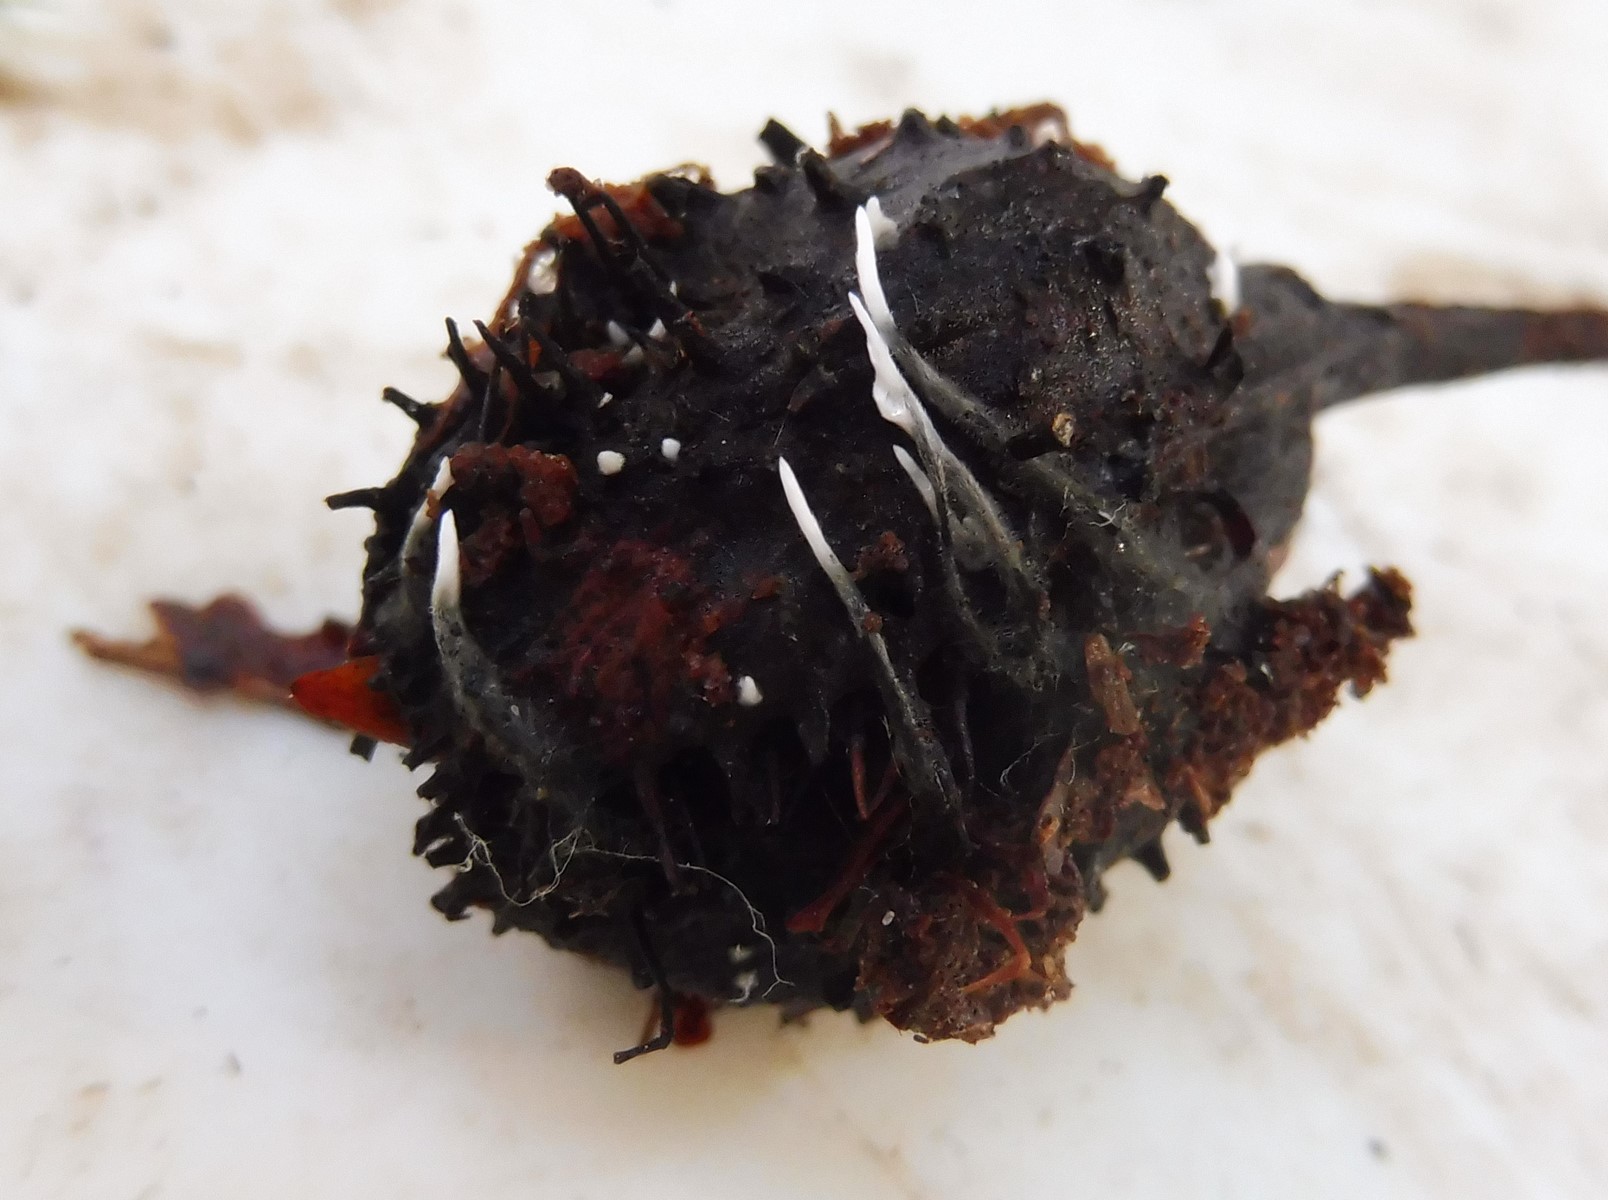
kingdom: Fungi
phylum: Ascomycota
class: Sordariomycetes
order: Xylariales
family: Xylariaceae
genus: Xylaria
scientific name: Xylaria carpophila
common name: bogskål-stødsvamp
